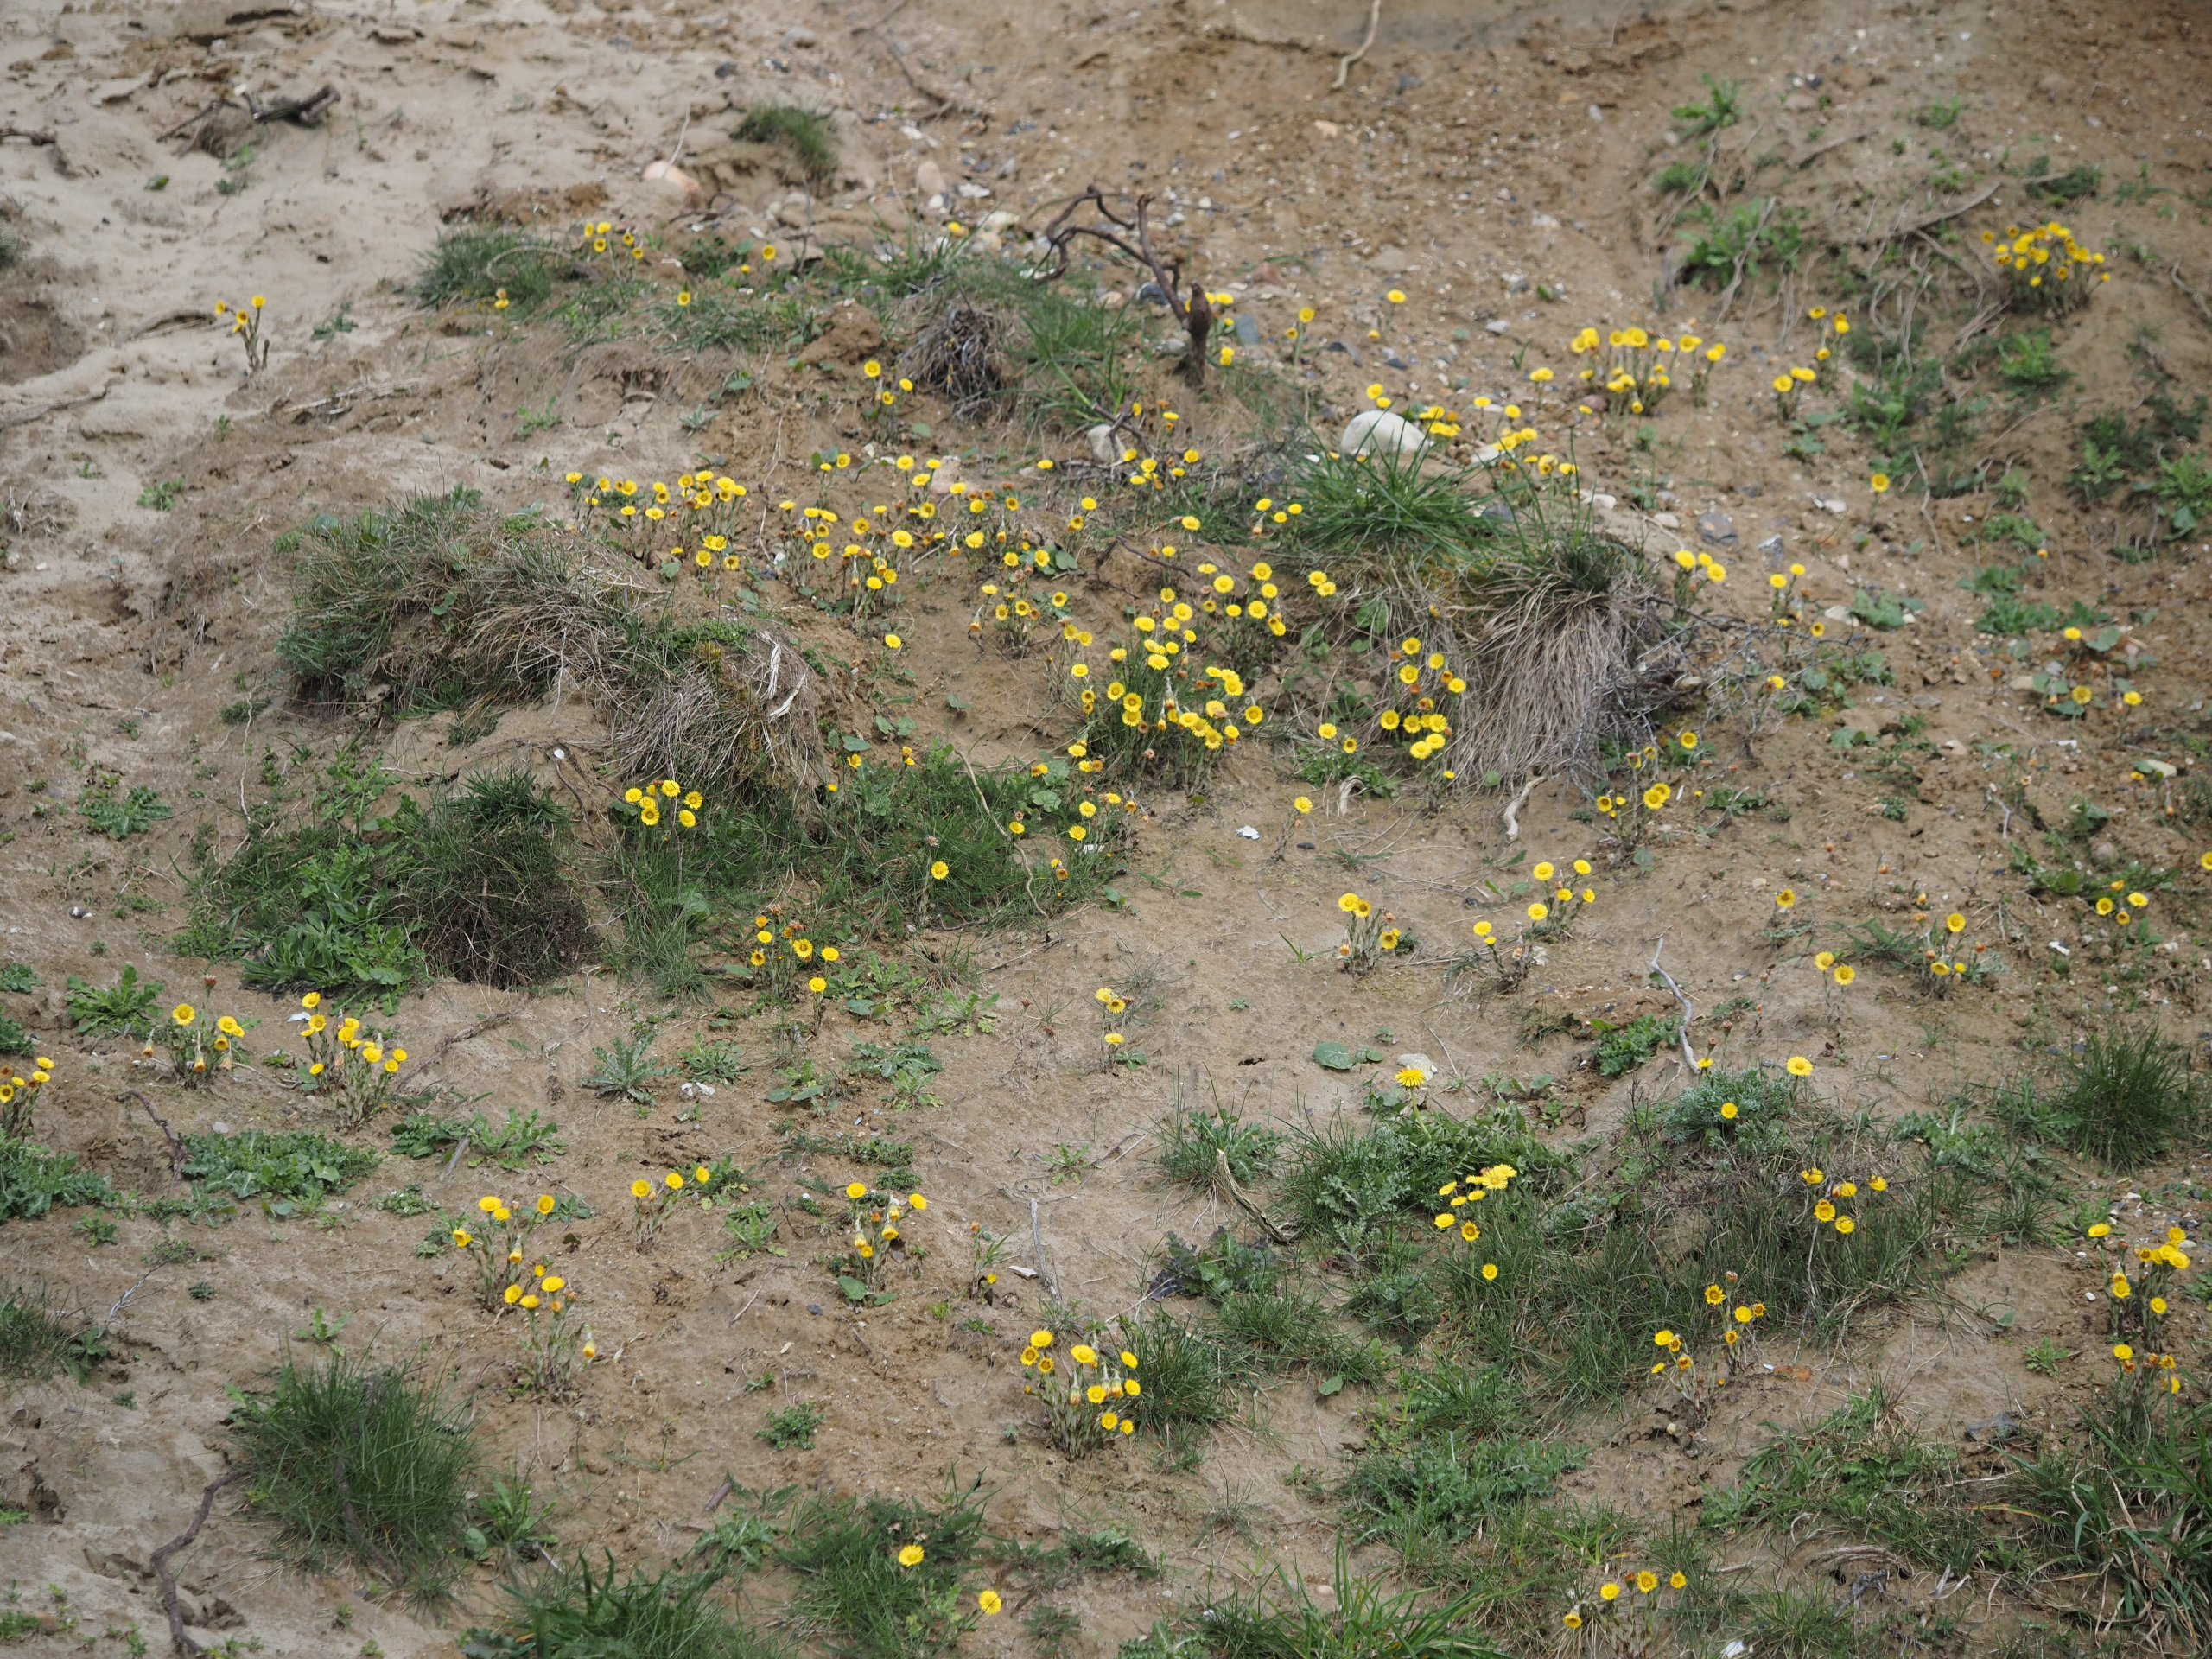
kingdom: Plantae
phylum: Tracheophyta
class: Magnoliopsida
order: Asterales
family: Asteraceae
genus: Tussilago
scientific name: Tussilago farfara
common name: Følfod
